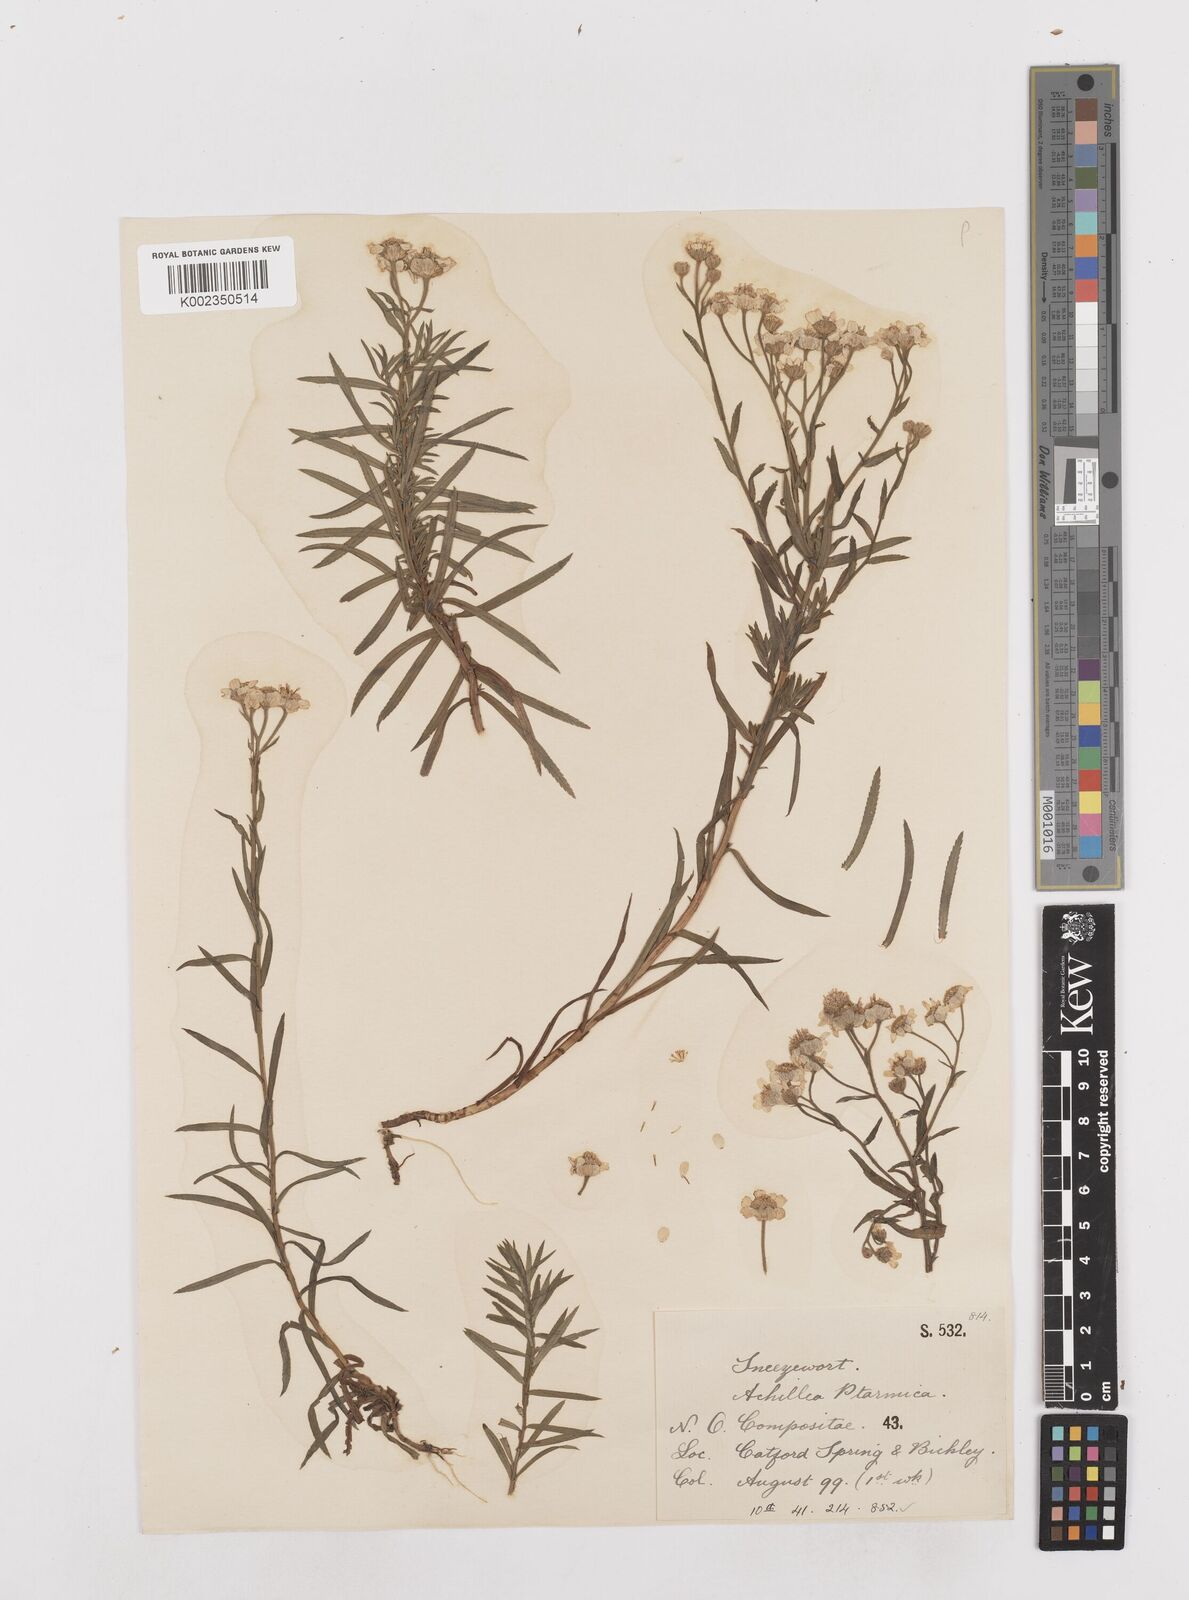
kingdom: Plantae
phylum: Tracheophyta
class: Magnoliopsida
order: Asterales
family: Asteraceae
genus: Achillea
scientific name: Achillea ptarmica
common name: Sneezeweed
